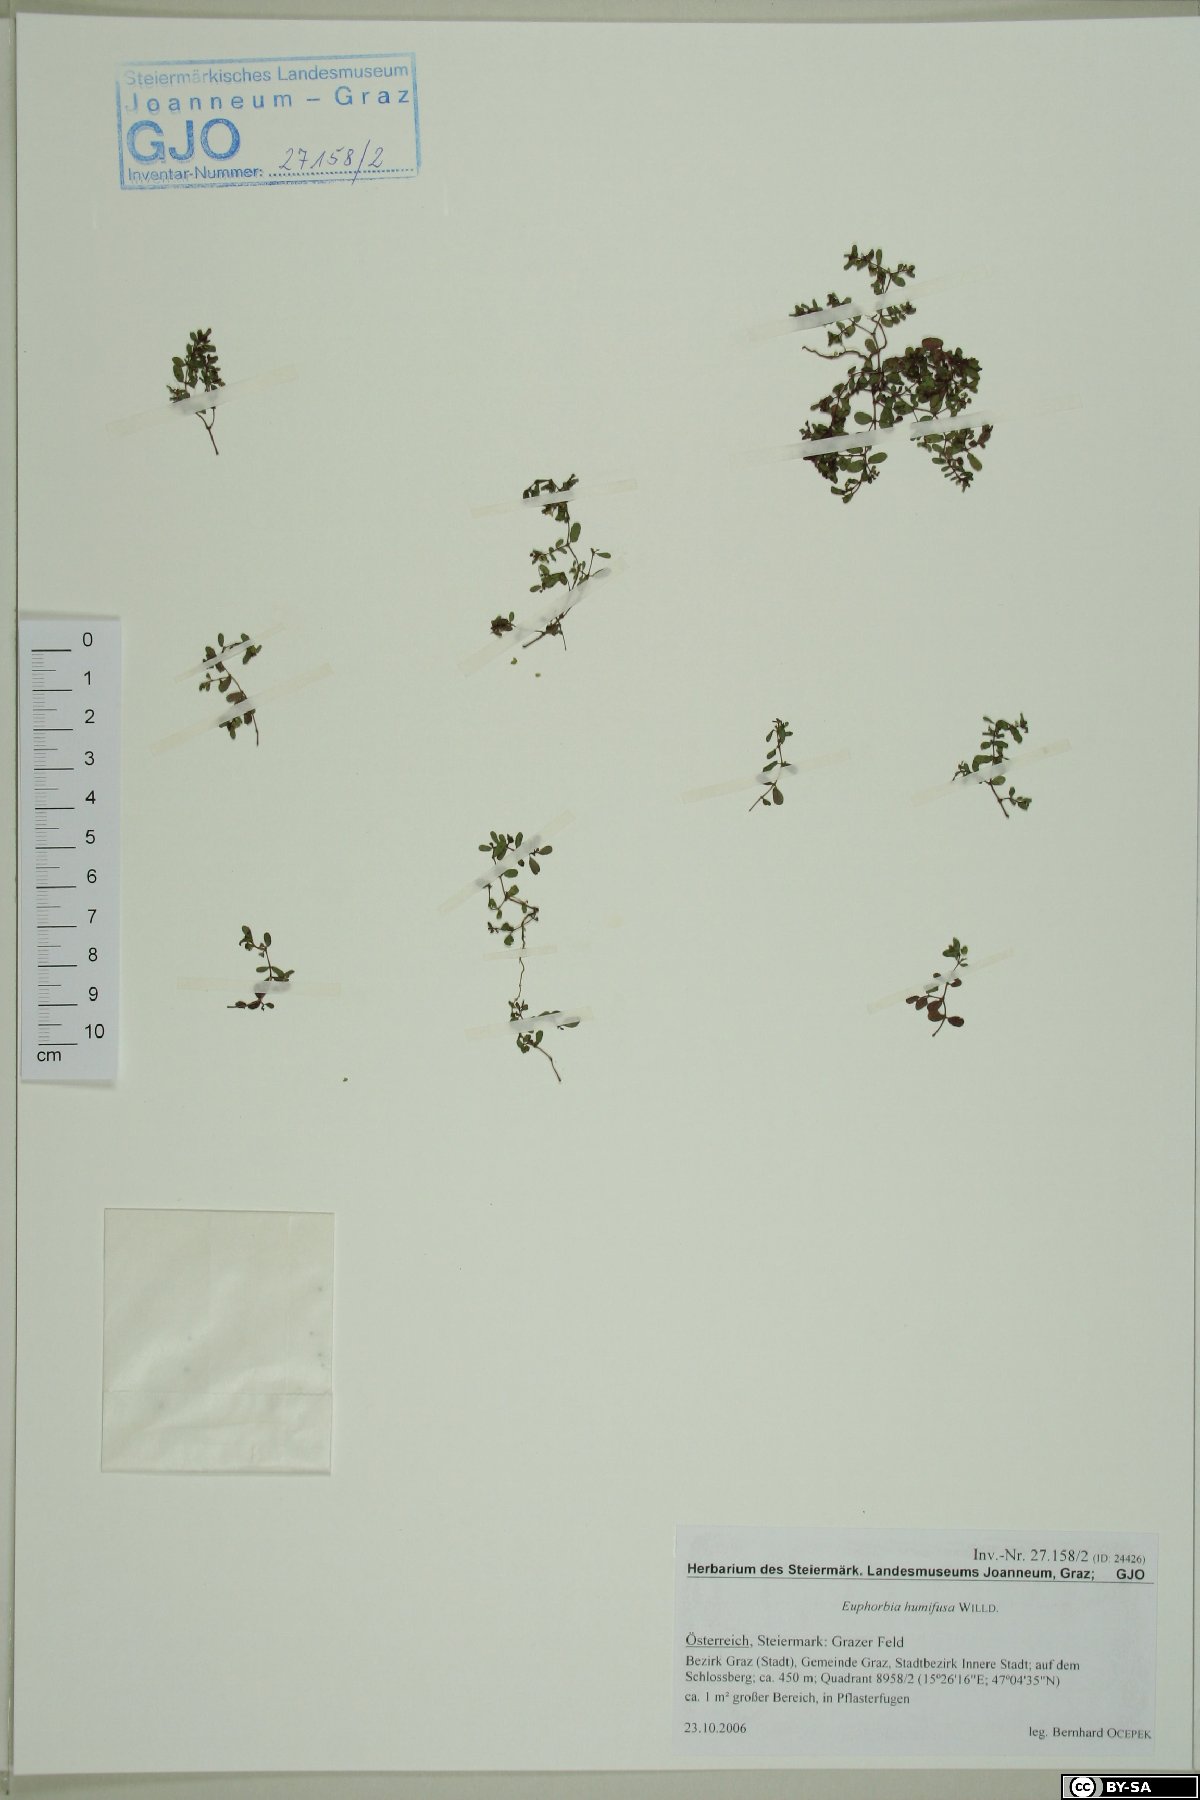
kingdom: Plantae
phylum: Tracheophyta
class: Magnoliopsida
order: Malpighiales
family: Euphorbiaceae
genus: Euphorbia
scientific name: Euphorbia humifusa
